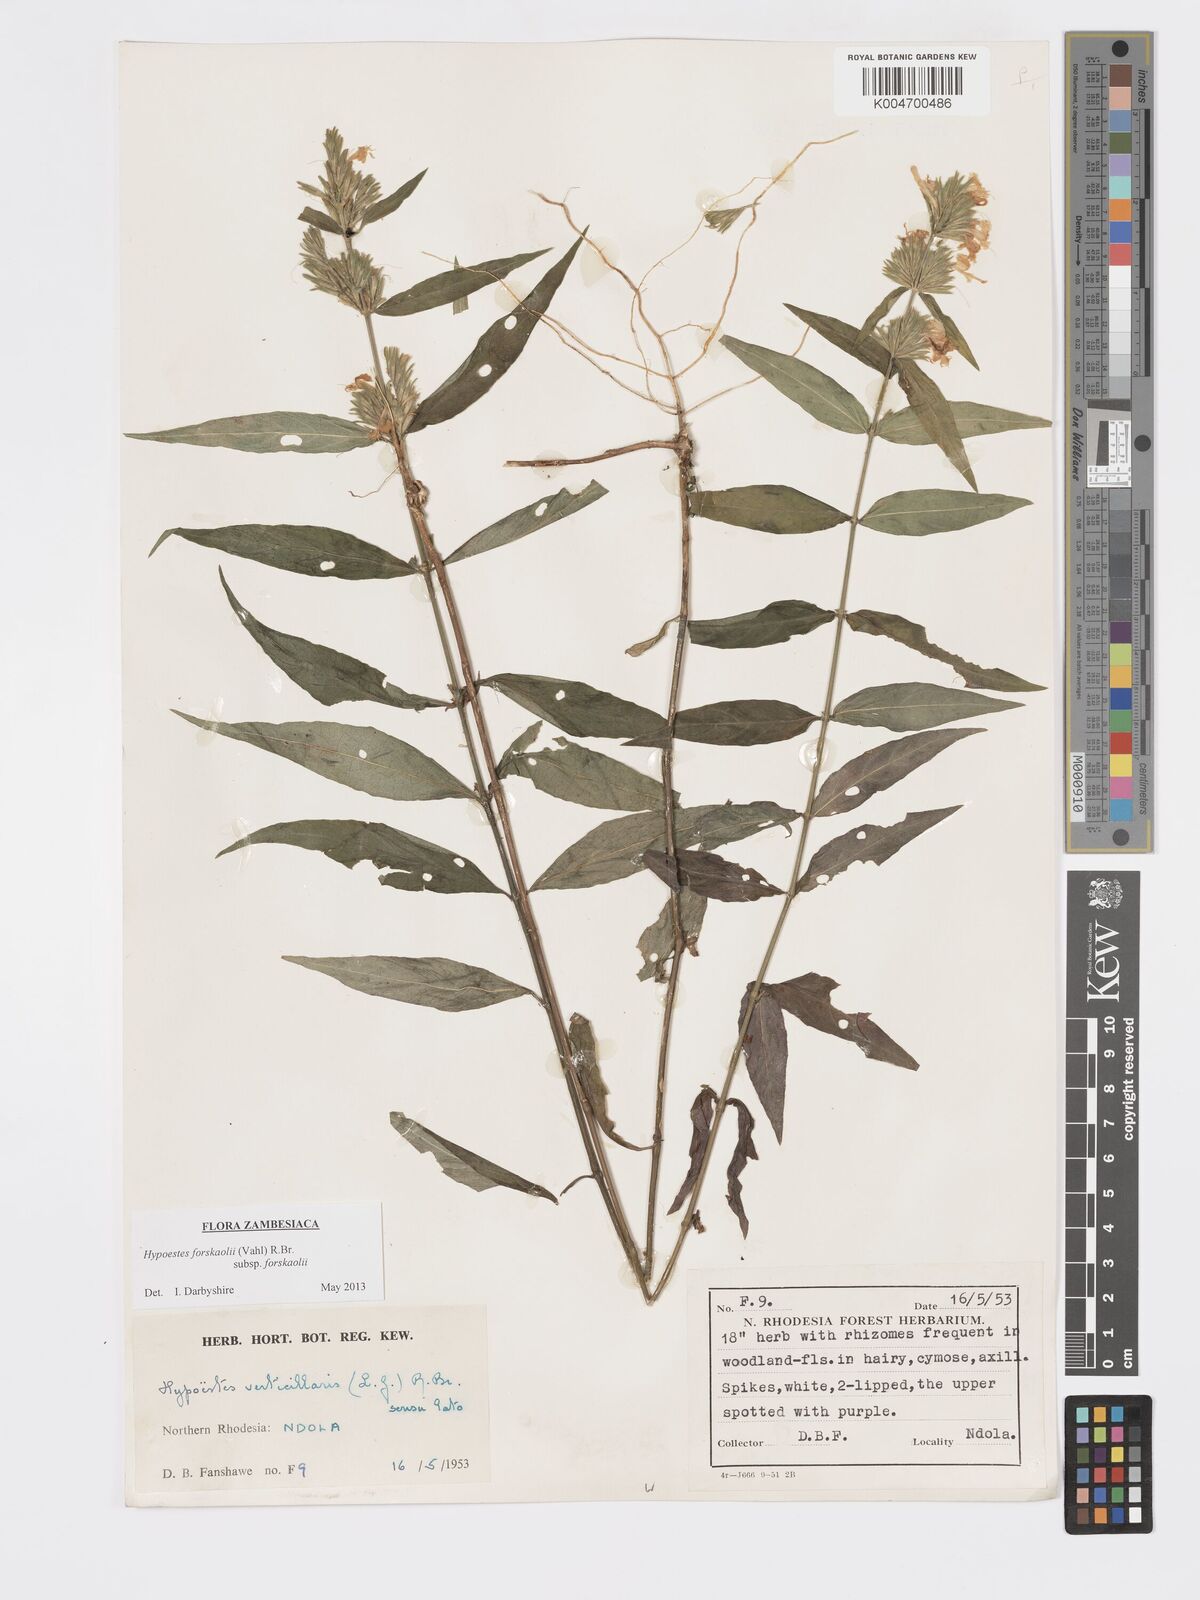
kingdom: Plantae
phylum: Tracheophyta
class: Magnoliopsida
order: Lamiales
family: Acanthaceae
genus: Hypoestes
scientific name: Hypoestes forskaolii
